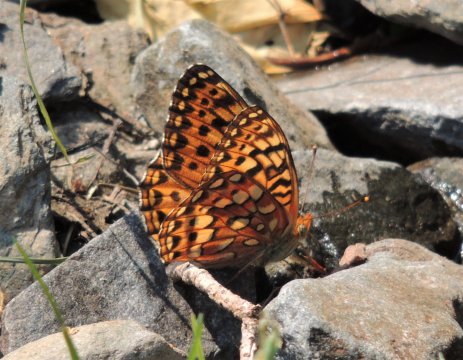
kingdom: Animalia
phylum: Arthropoda
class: Insecta
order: Lepidoptera
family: Nymphalidae
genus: Speyeria
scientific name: Speyeria zerene
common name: Zerene Fritillary
